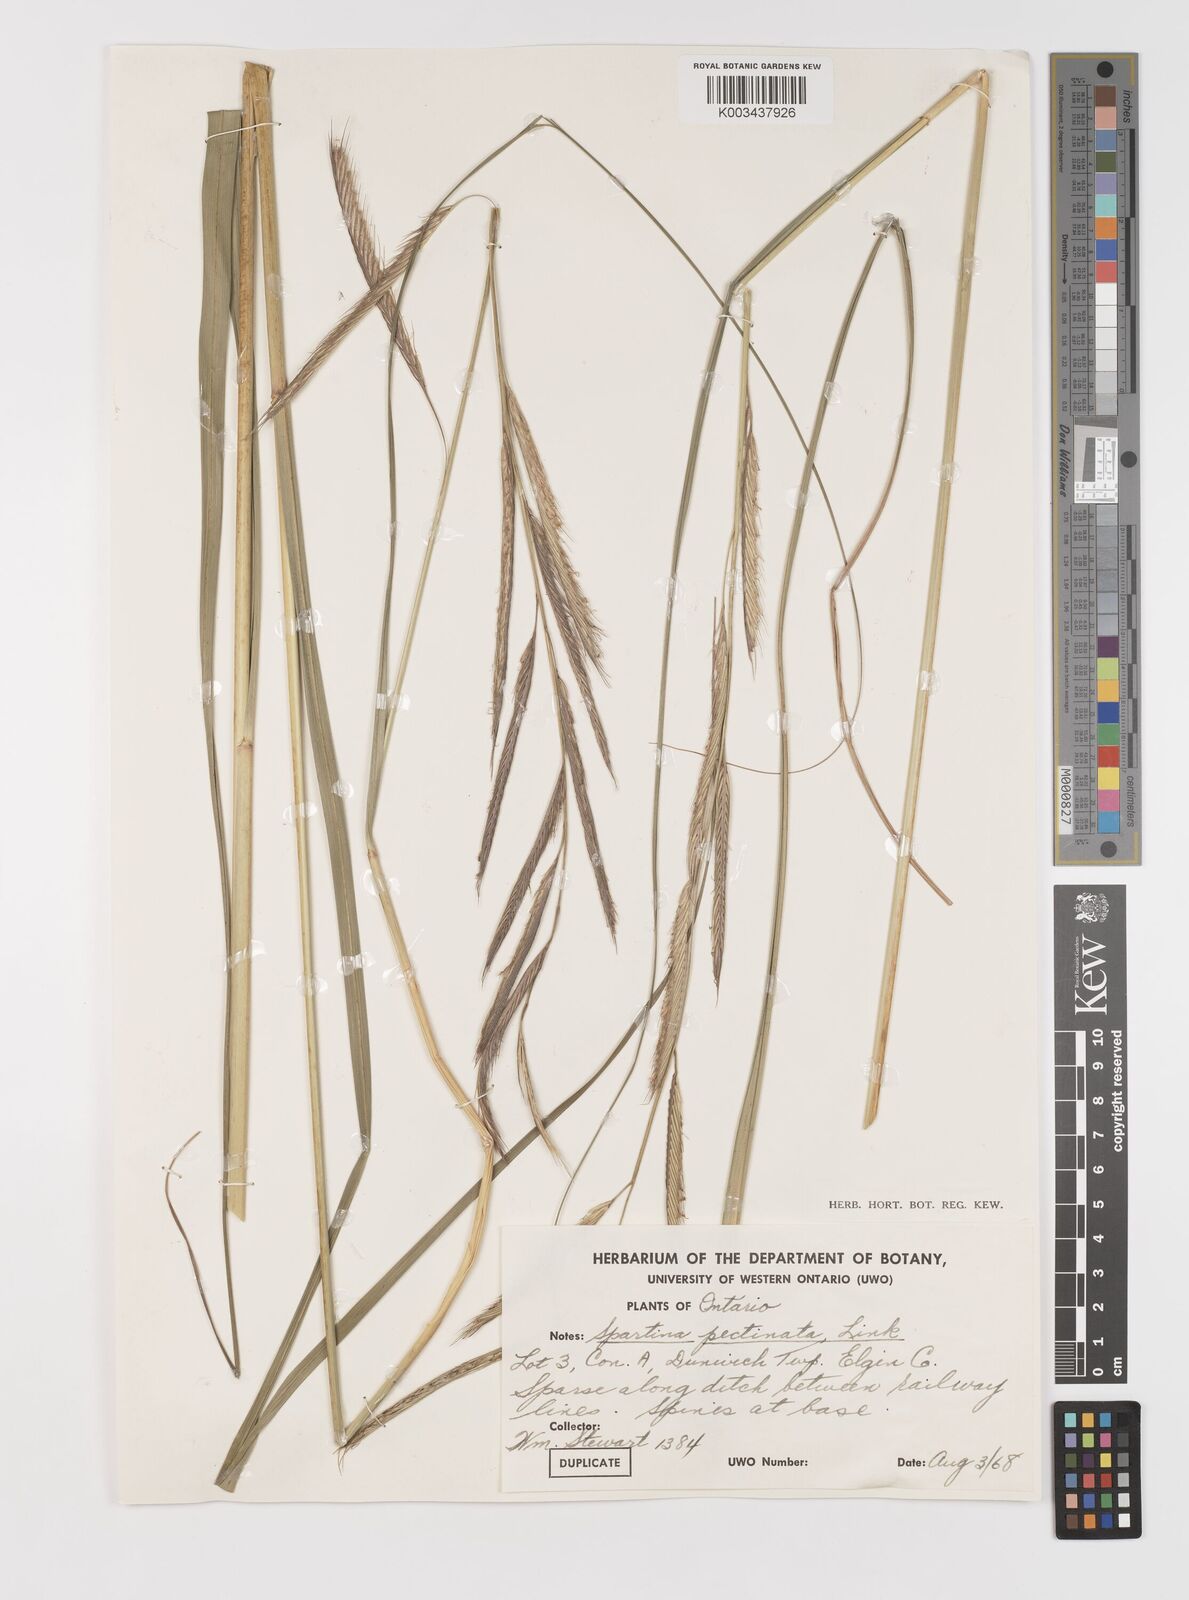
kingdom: Plantae
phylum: Tracheophyta
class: Liliopsida
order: Poales
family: Poaceae
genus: Sporobolus
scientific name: Sporobolus michauxianus
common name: Freshwater cordgrass
